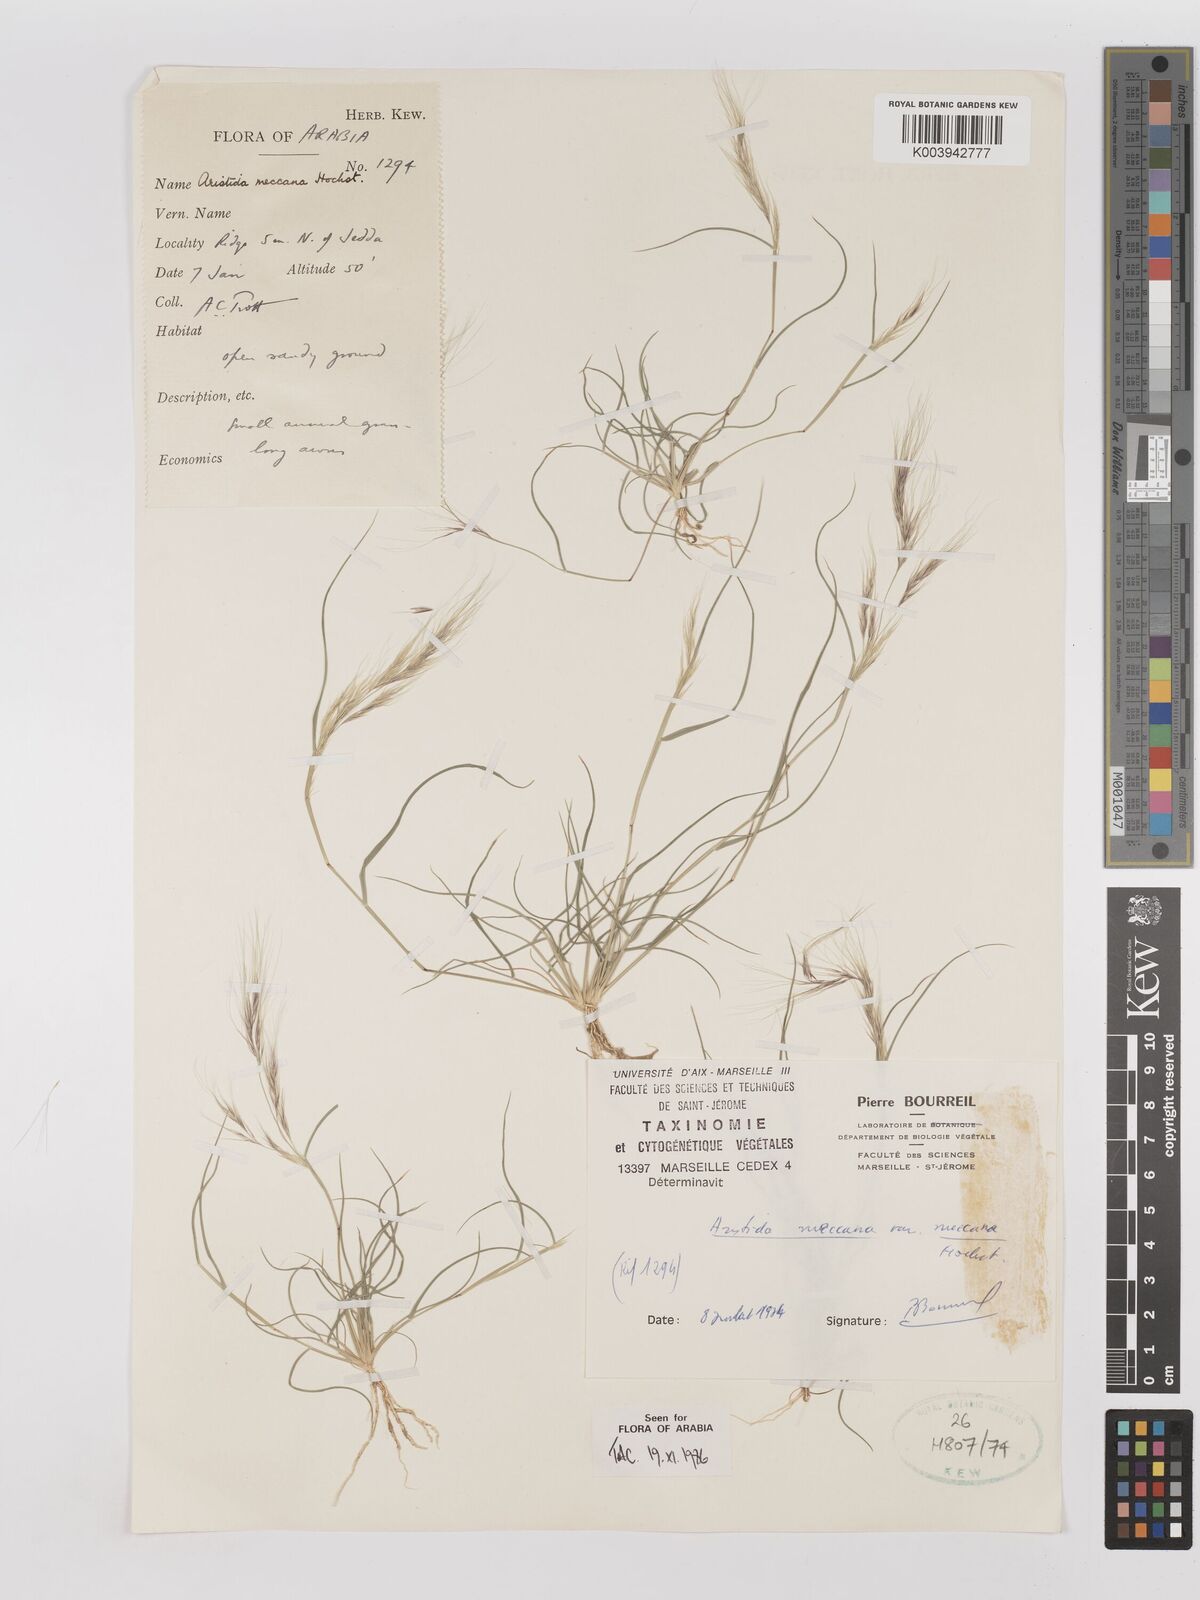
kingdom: Plantae
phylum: Tracheophyta
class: Liliopsida
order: Poales
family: Poaceae
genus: Aristida
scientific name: Aristida mutabilis
